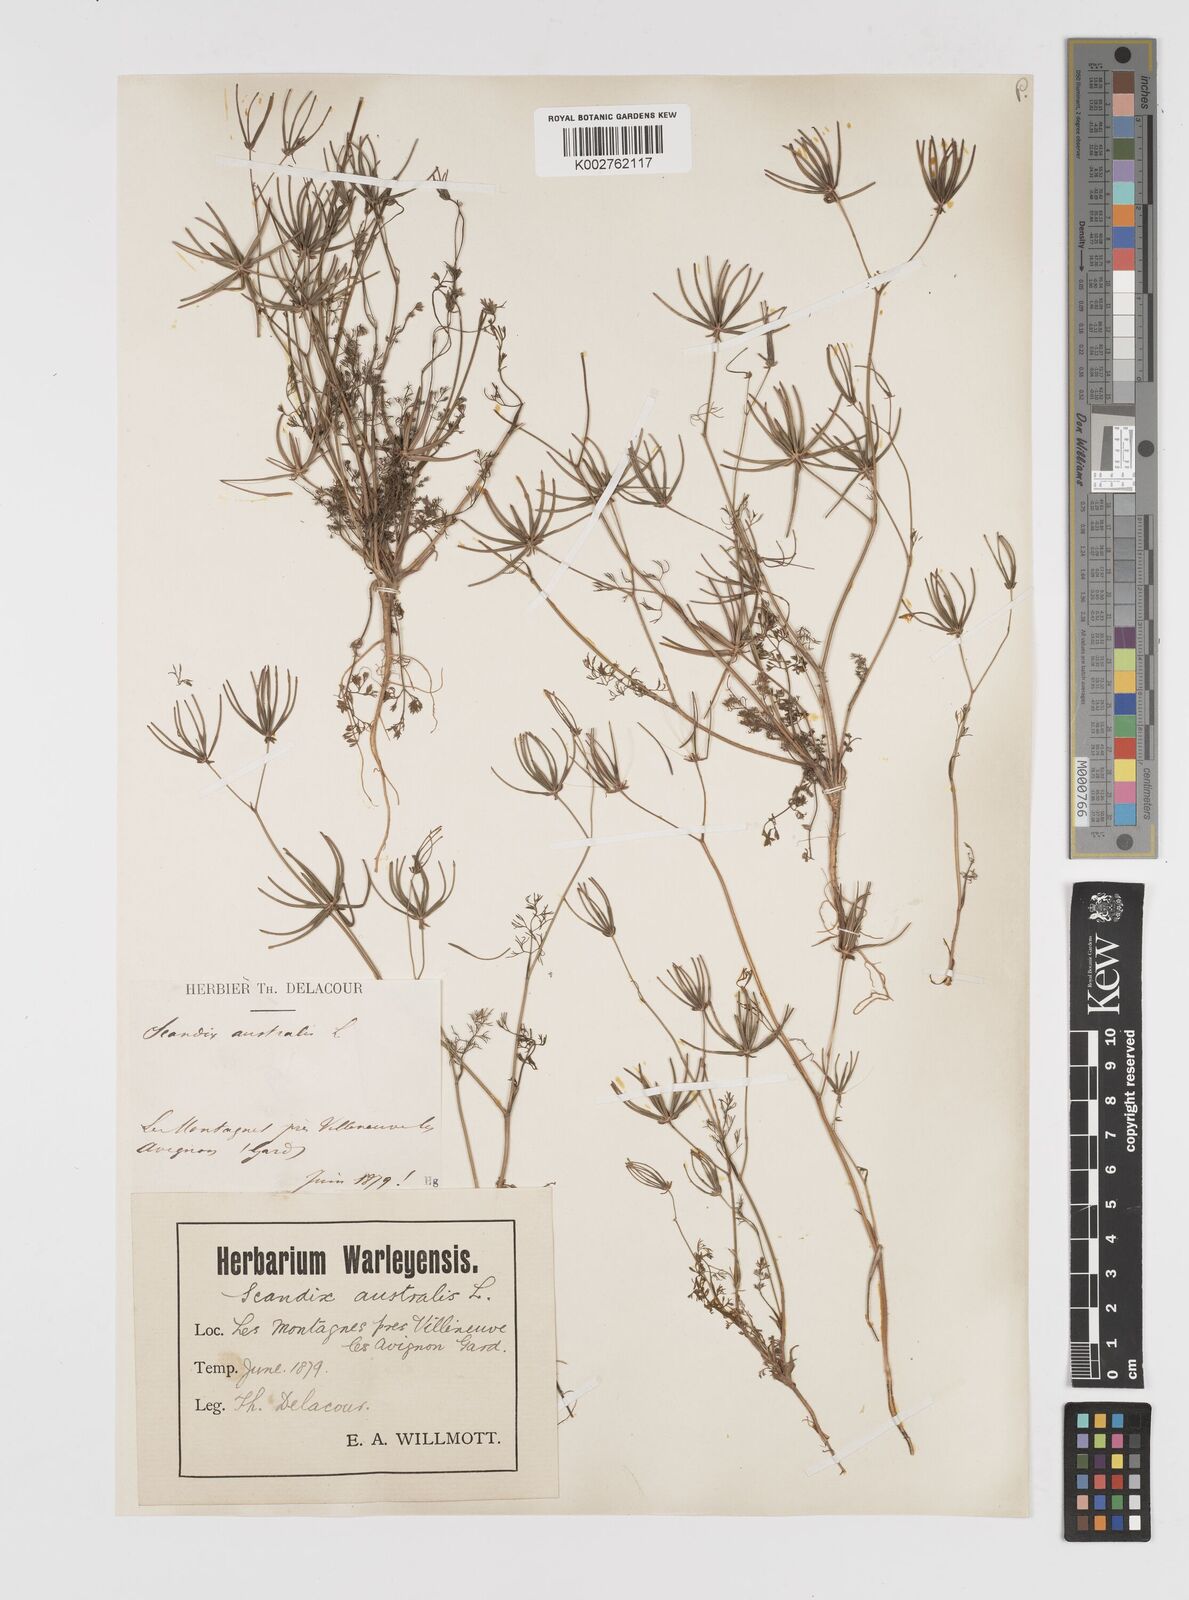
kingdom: Plantae
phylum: Tracheophyta
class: Magnoliopsida
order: Apiales
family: Apiaceae
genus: Scandix
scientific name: Scandix australis
